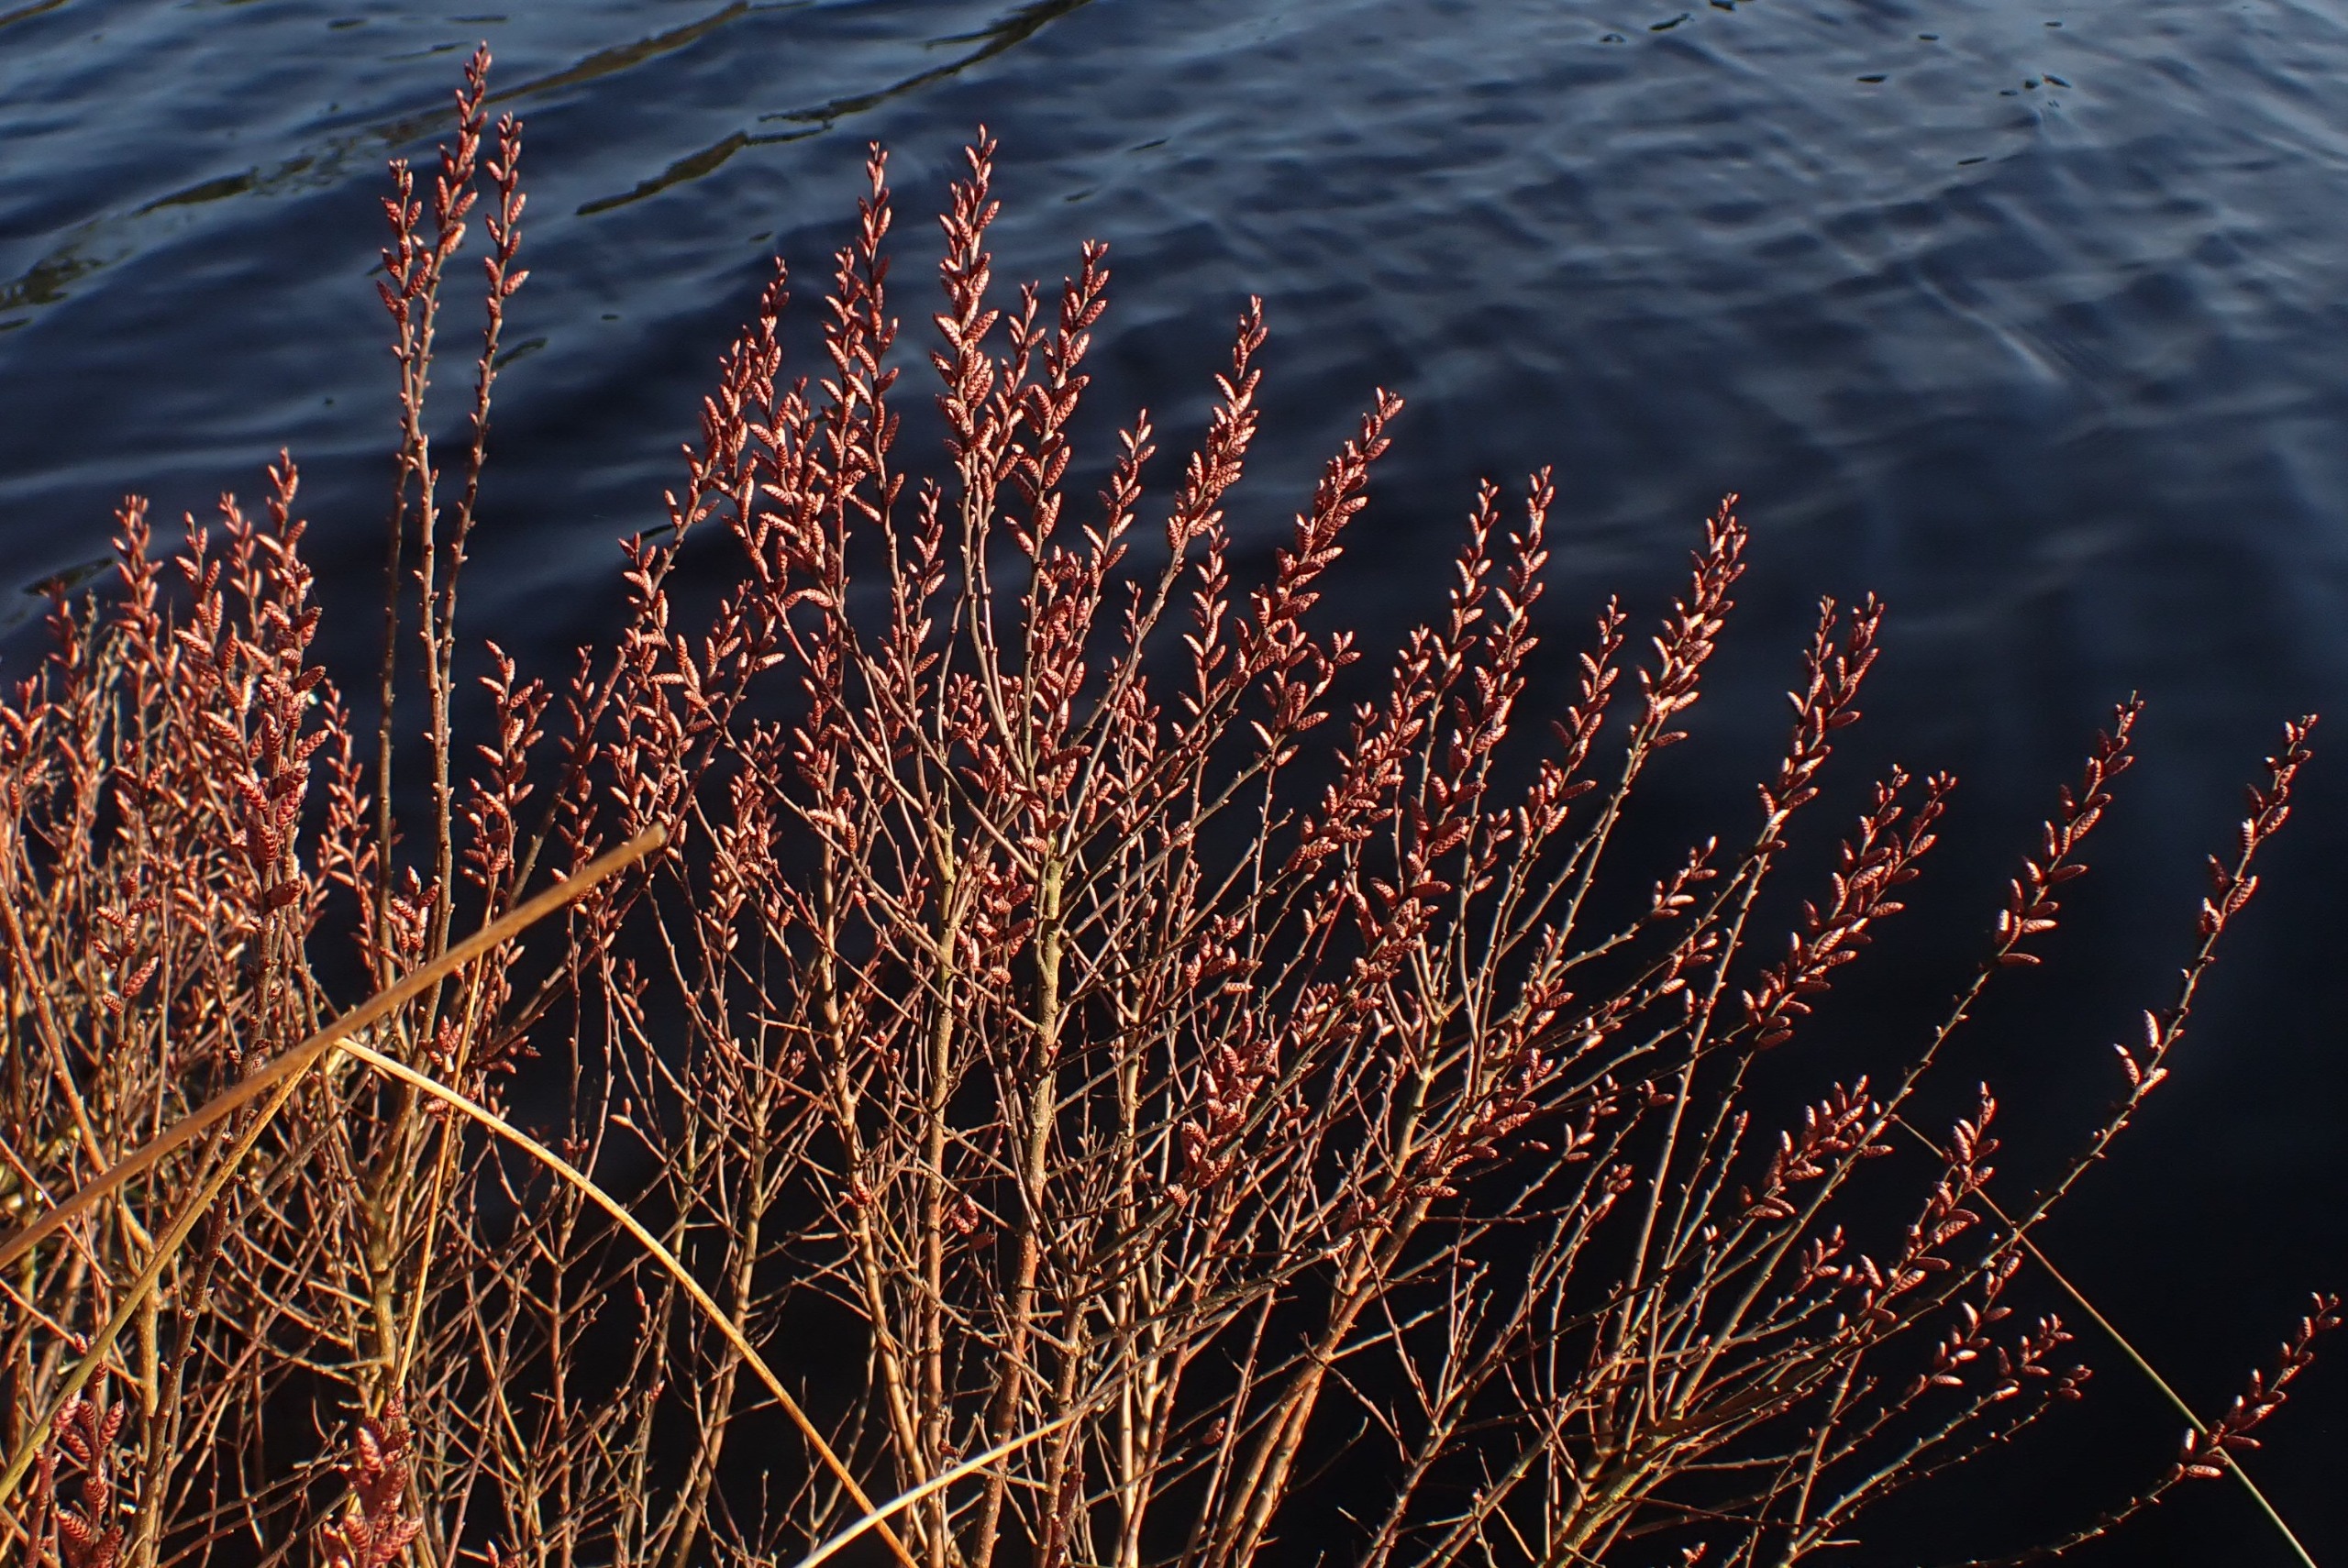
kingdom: Plantae
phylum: Tracheophyta
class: Magnoliopsida
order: Fagales
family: Myricaceae
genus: Myrica
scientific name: Myrica gale
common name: Pors
